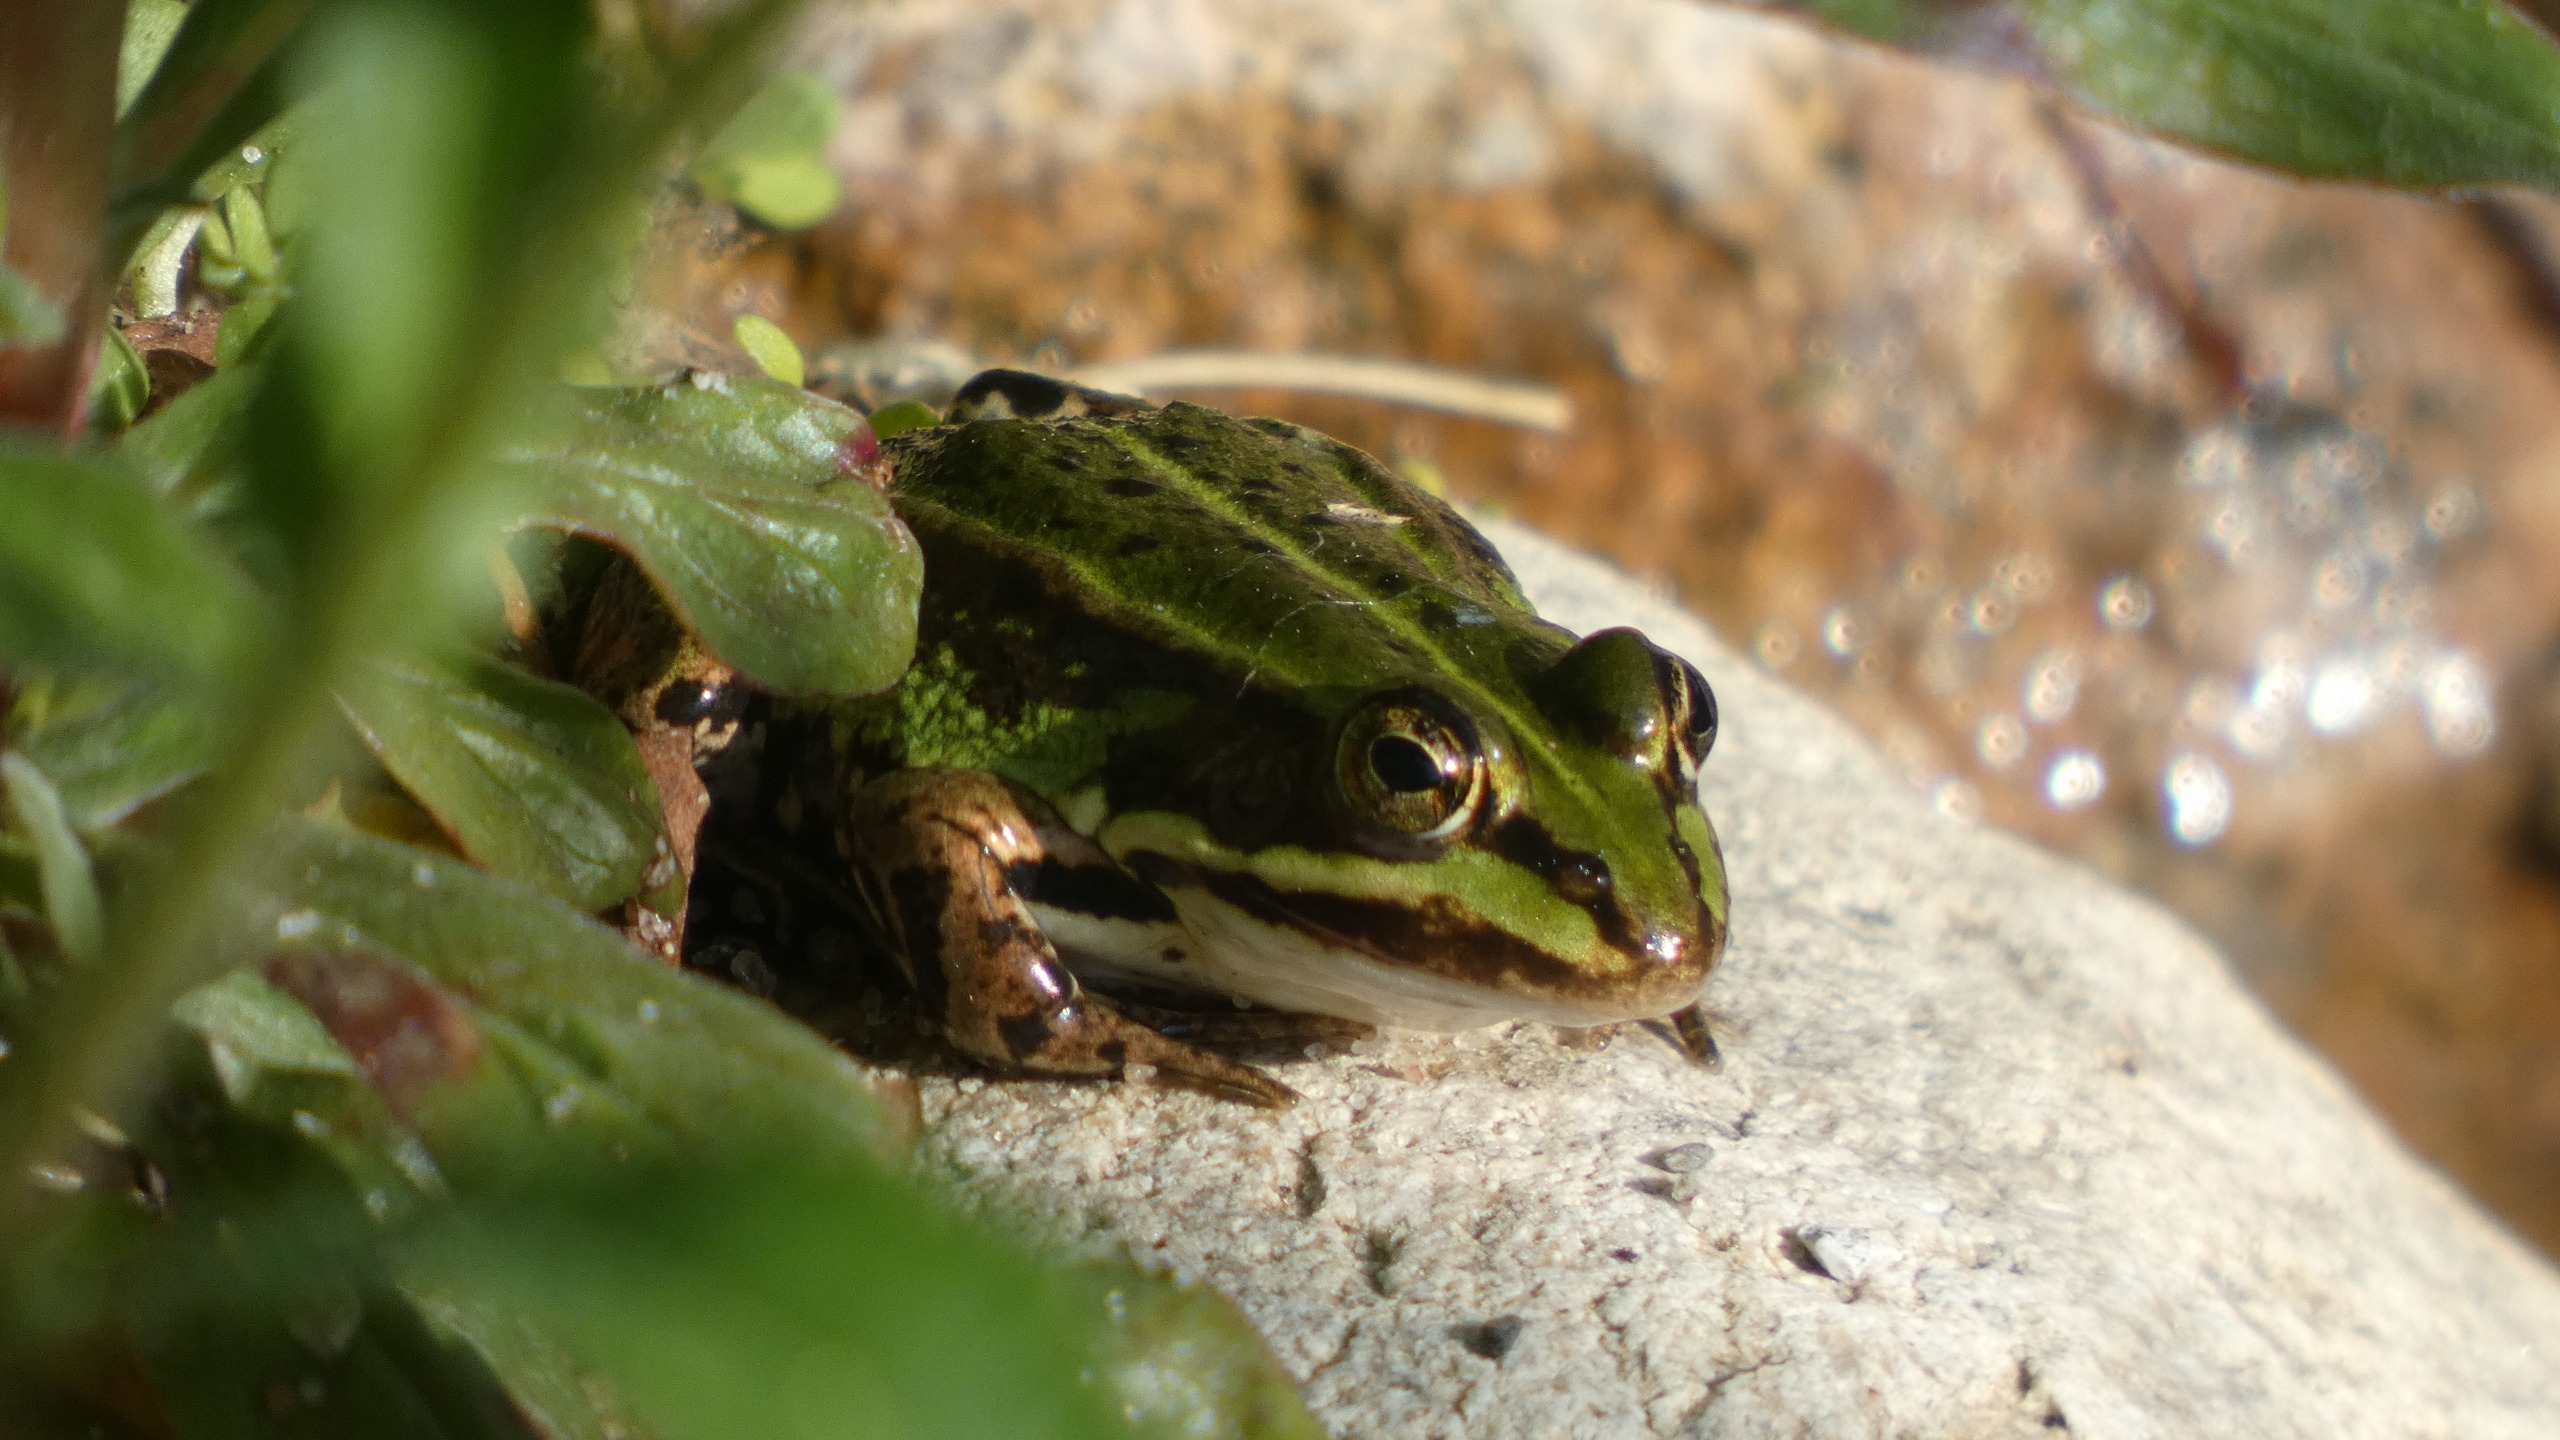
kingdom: Animalia
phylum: Chordata
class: Amphibia
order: Anura
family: Ranidae
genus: Pelophylax
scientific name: Pelophylax lessonae
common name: Grøn frø
